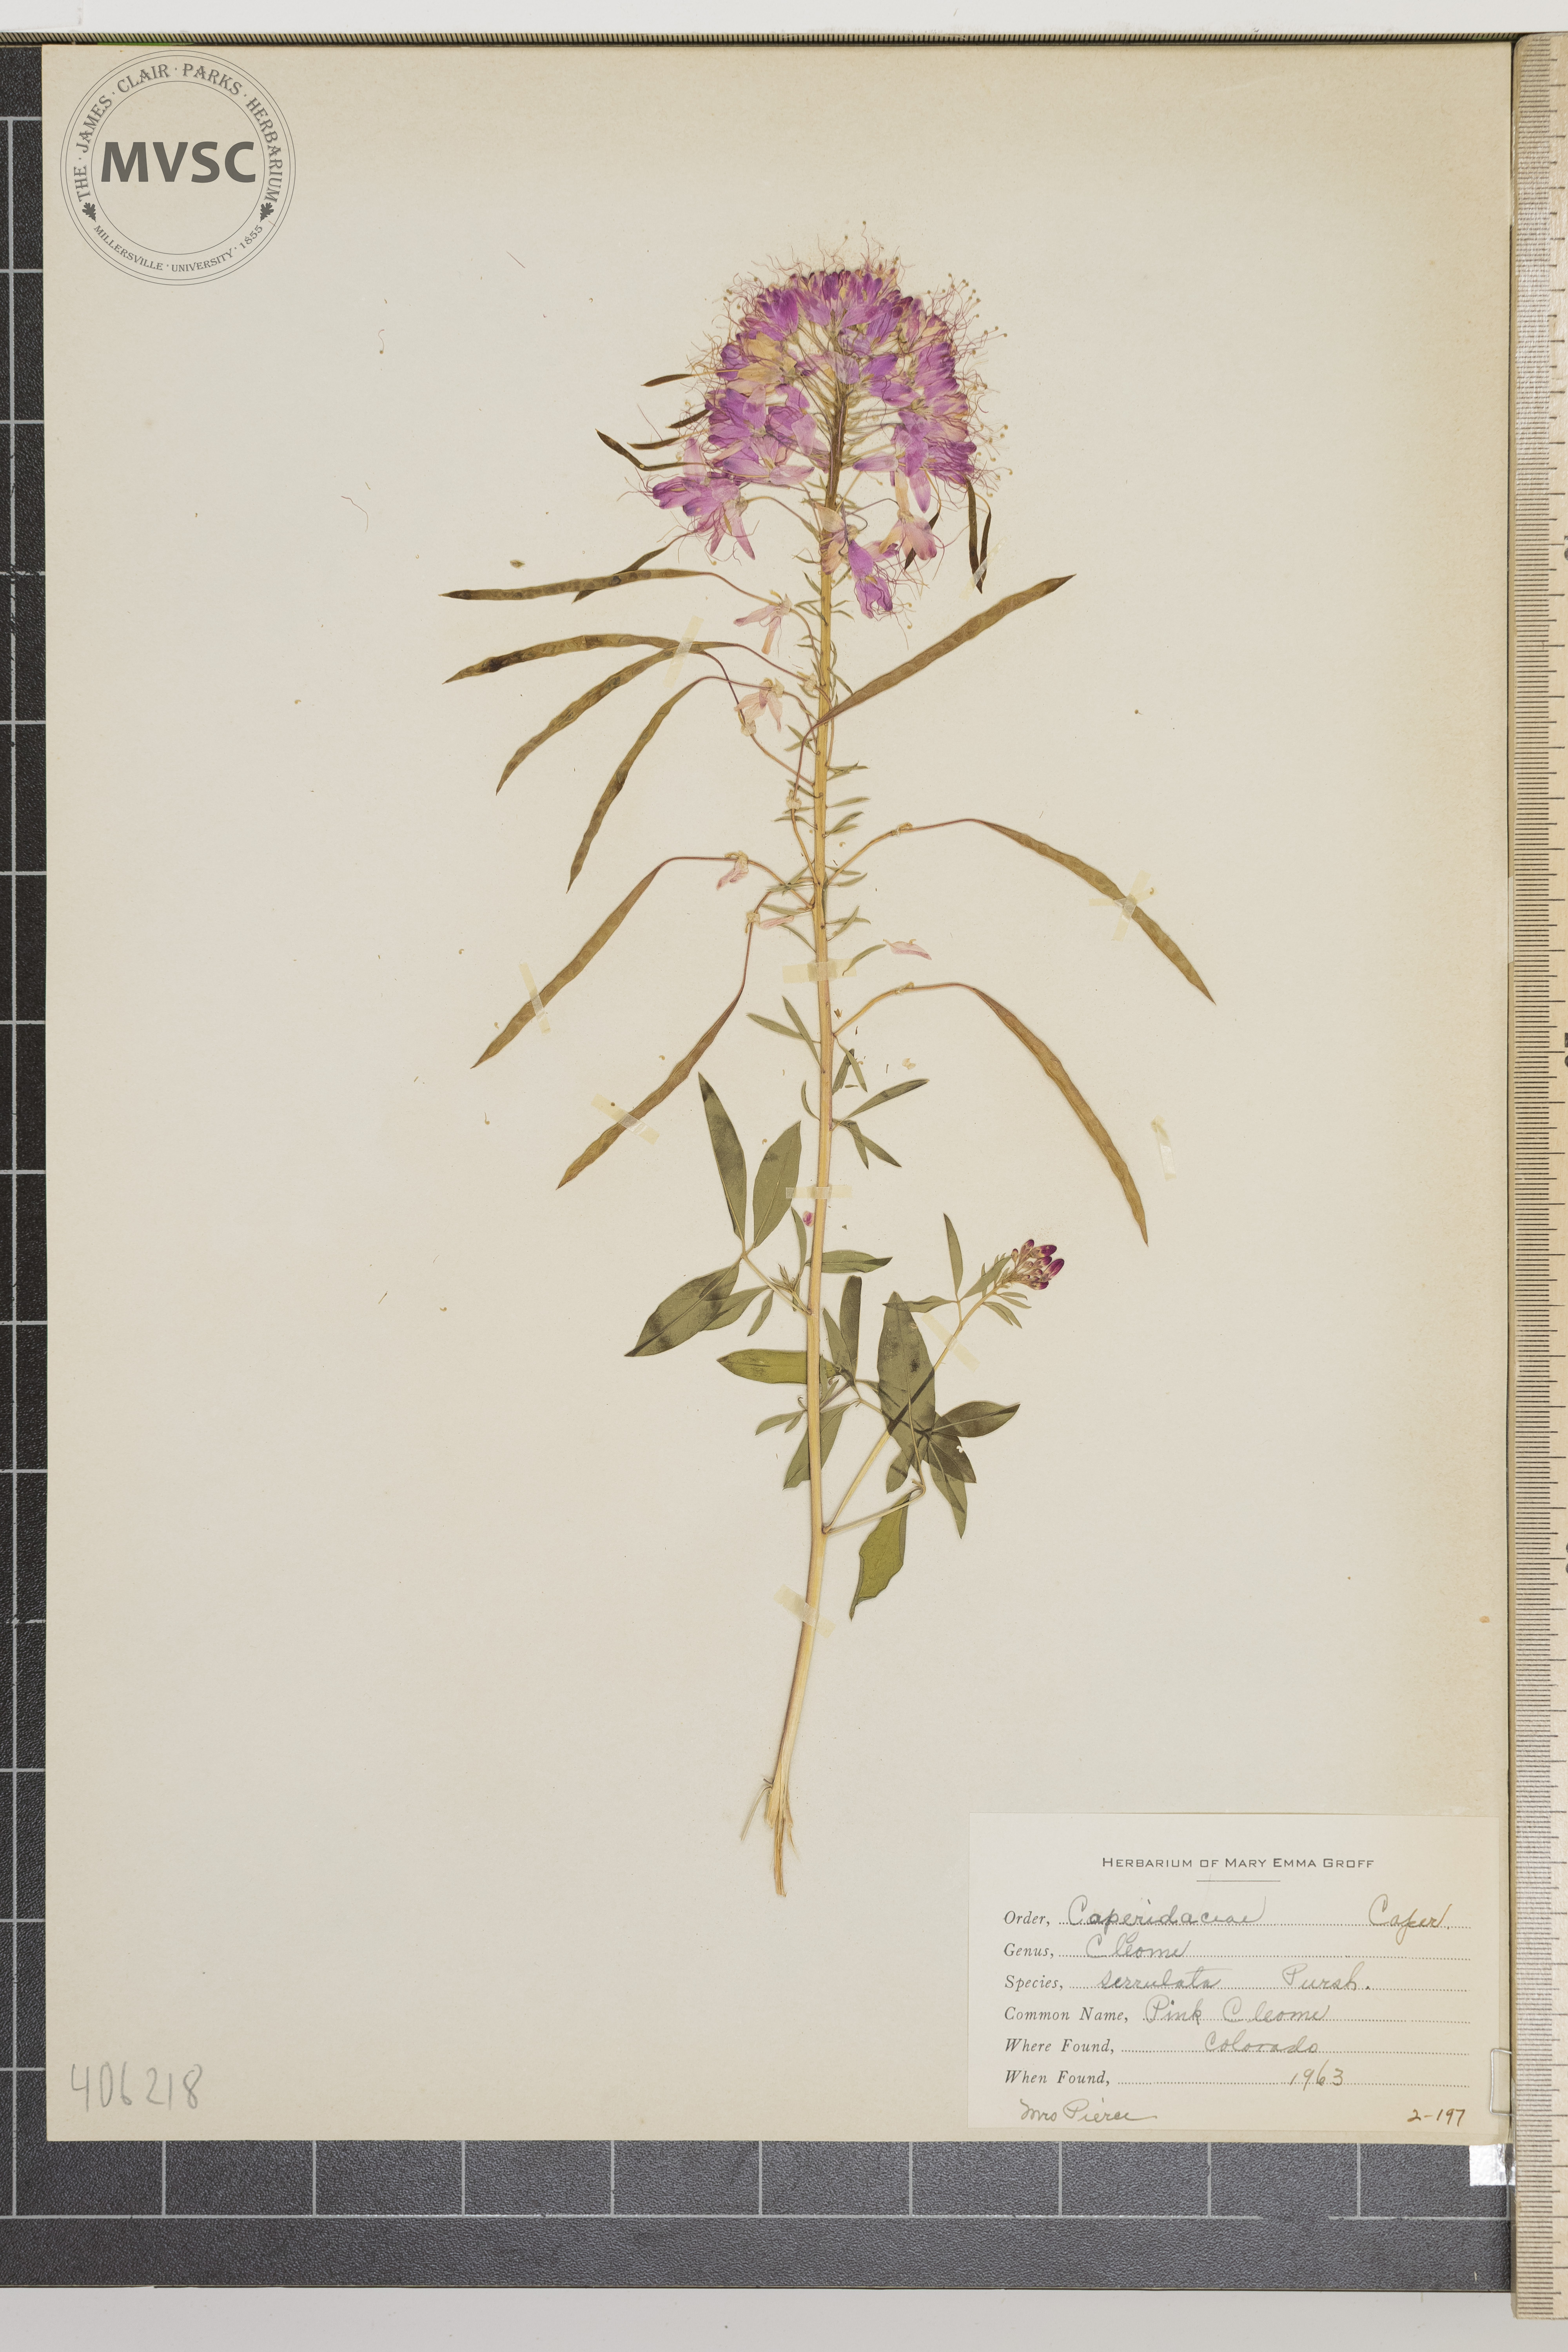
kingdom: Plantae
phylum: Tracheophyta
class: Magnoliopsida
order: Brassicales
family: Cleomaceae
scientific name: Cleomaceae
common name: Pink Cleome
